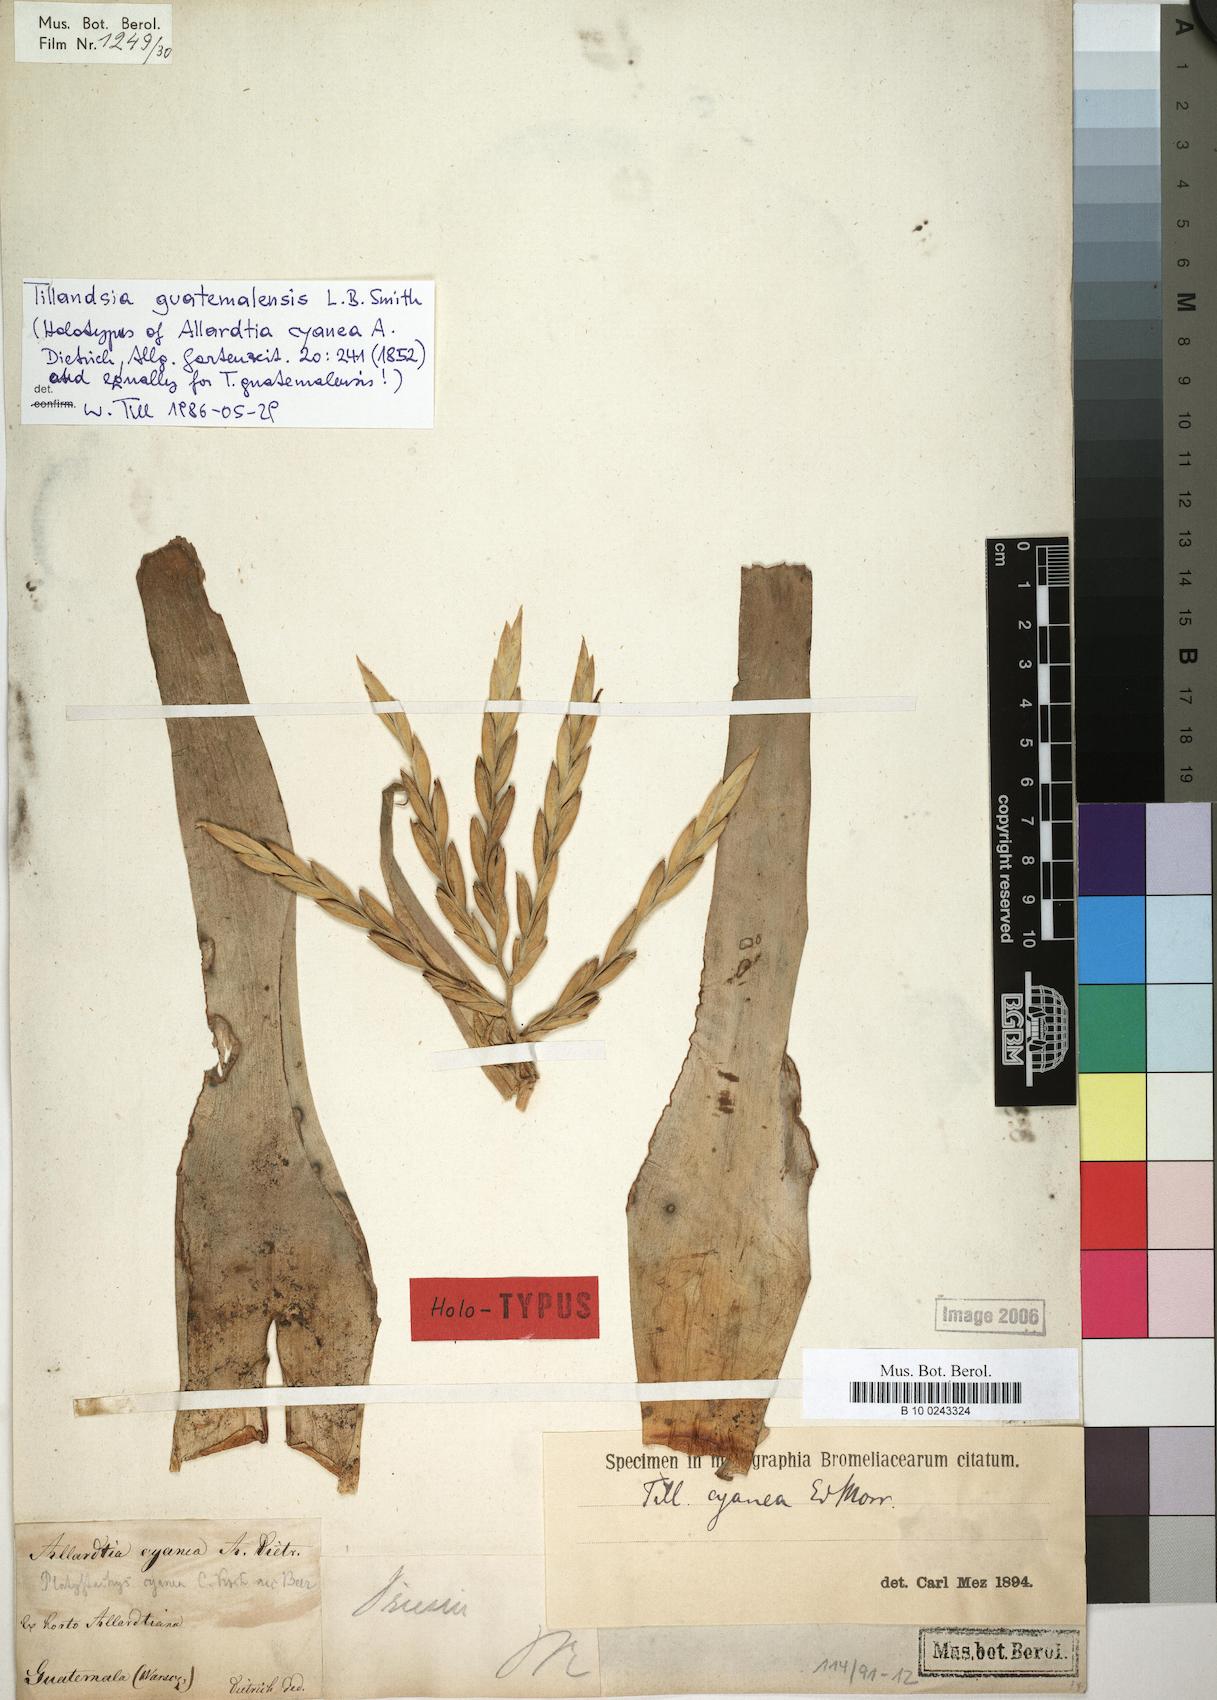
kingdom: Plantae
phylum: Tracheophyta
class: Liliopsida
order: Poales
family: Bromeliaceae
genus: Tillandsia
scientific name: Tillandsia guatemalensis
